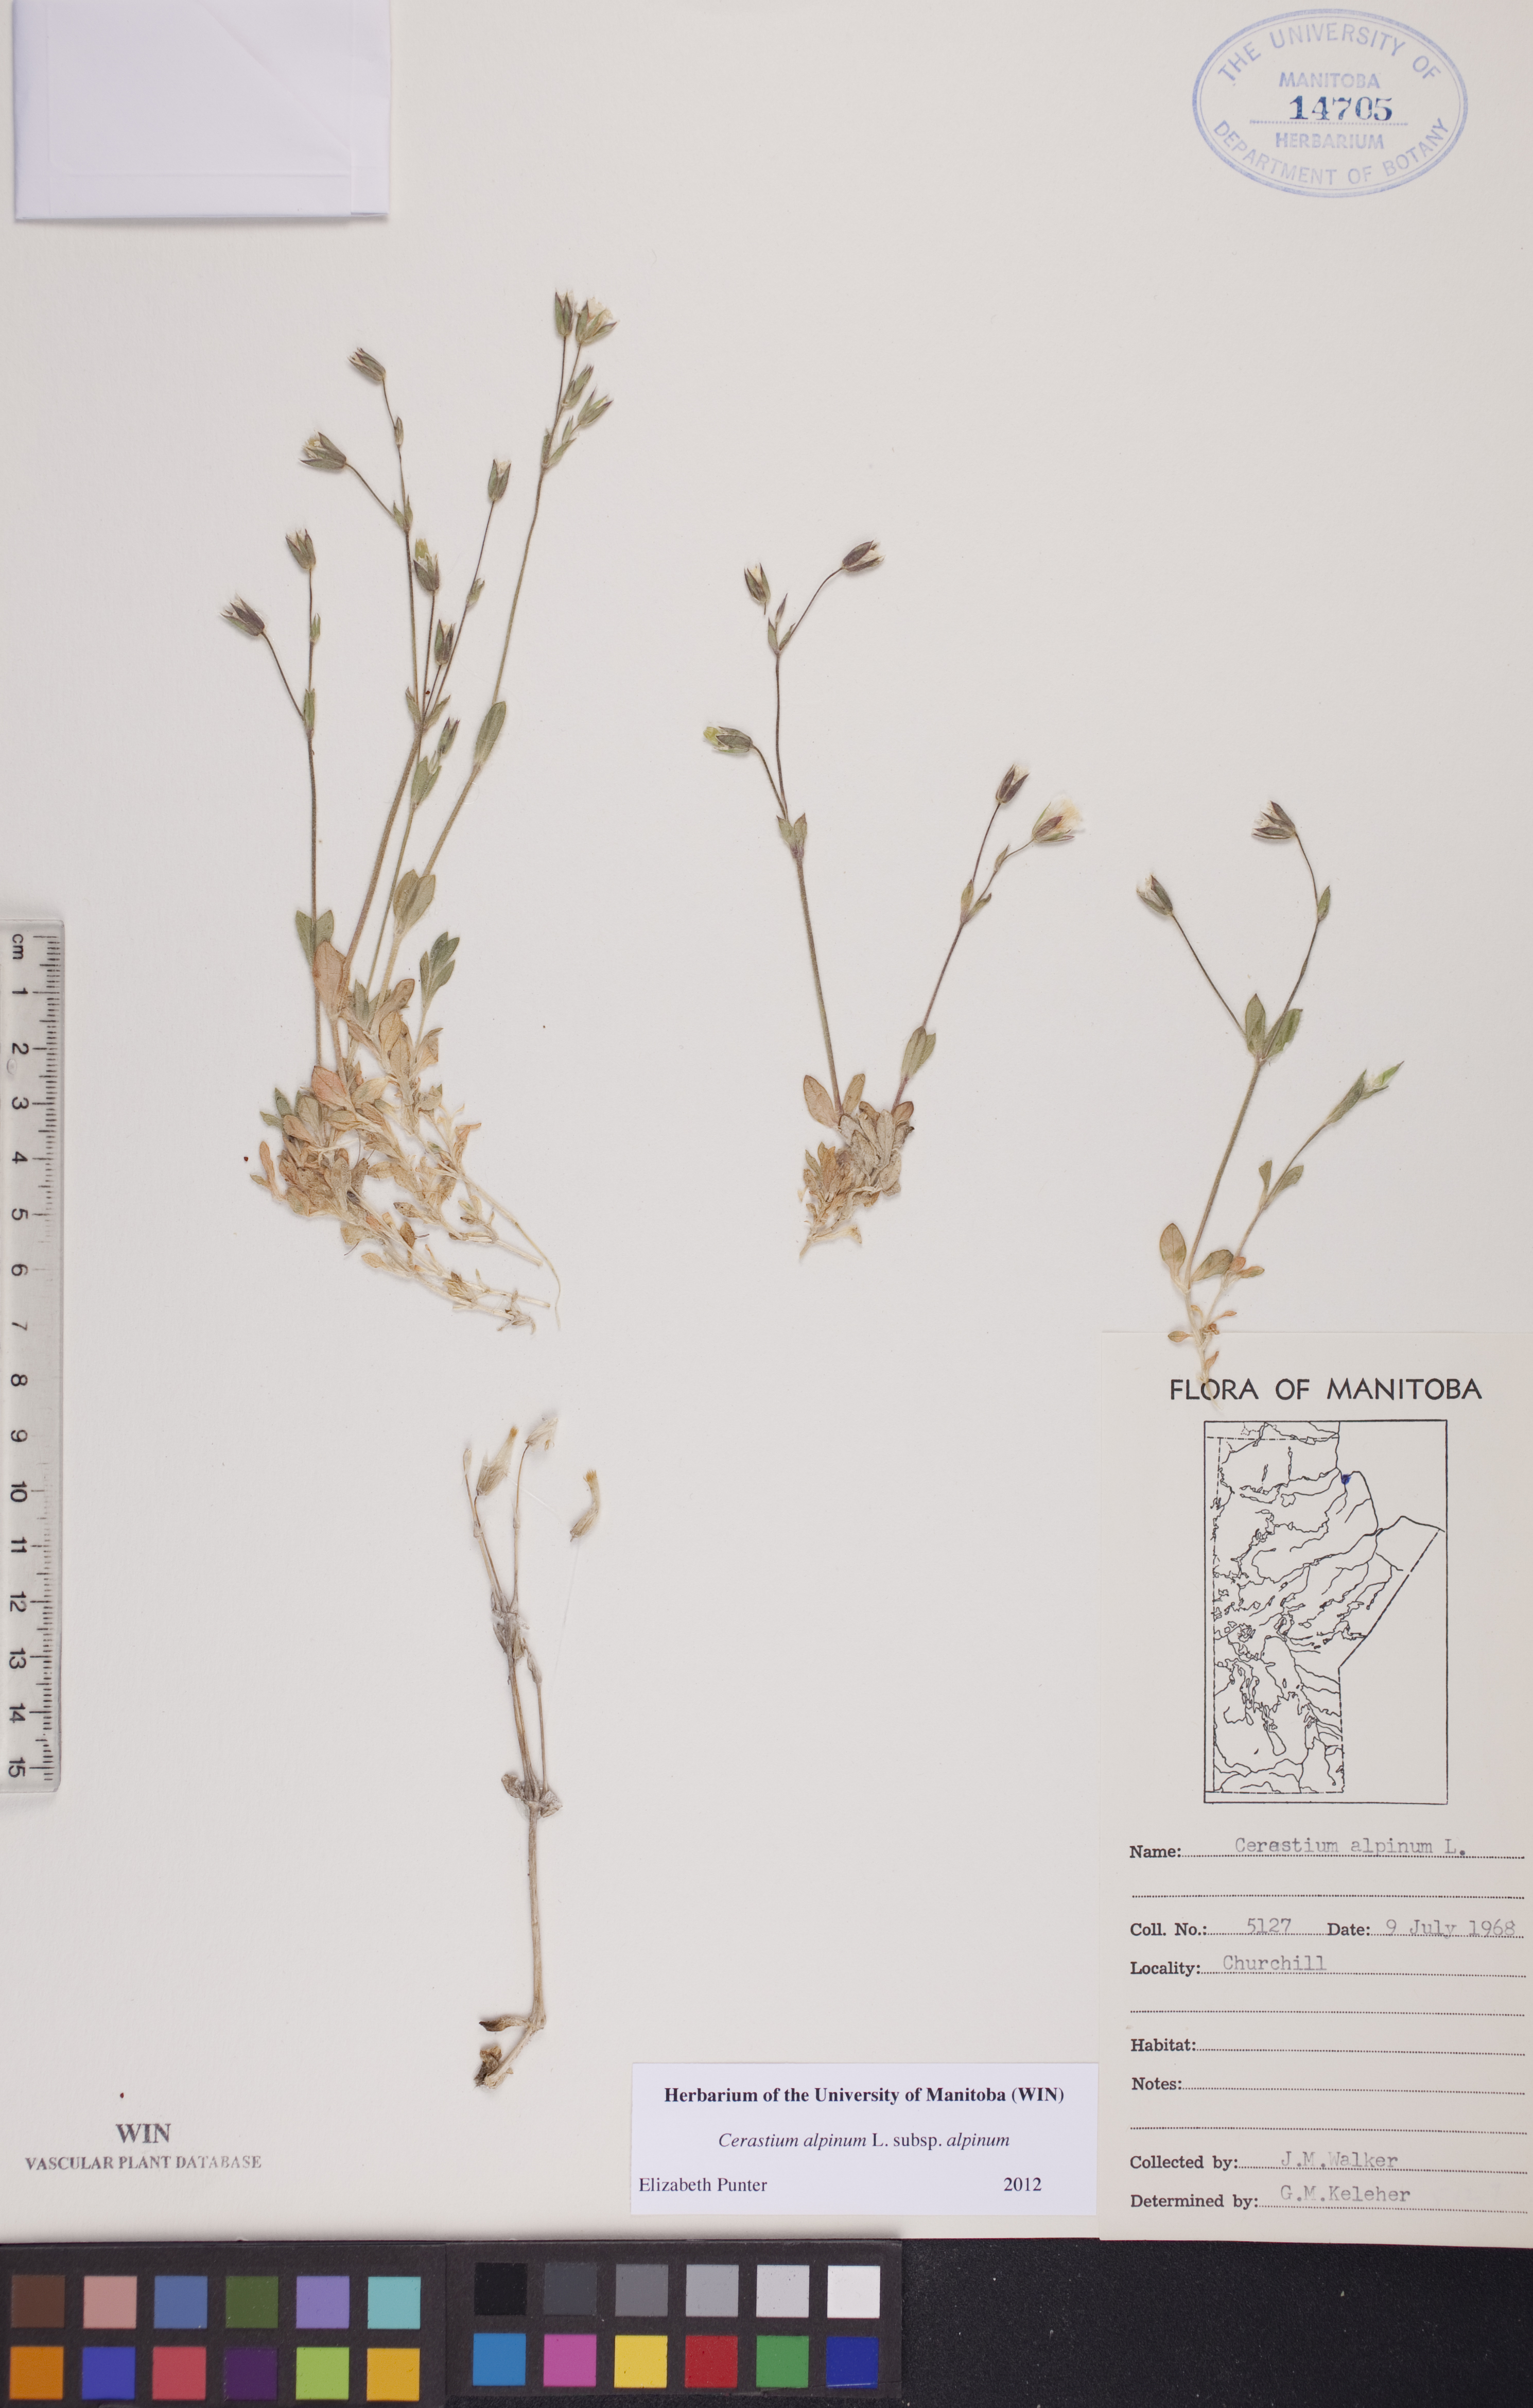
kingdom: Plantae
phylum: Tracheophyta
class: Magnoliopsida
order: Caryophyllales
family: Caryophyllaceae
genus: Cerastium
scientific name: Cerastium alpinum
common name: Alpine mouse-ear
